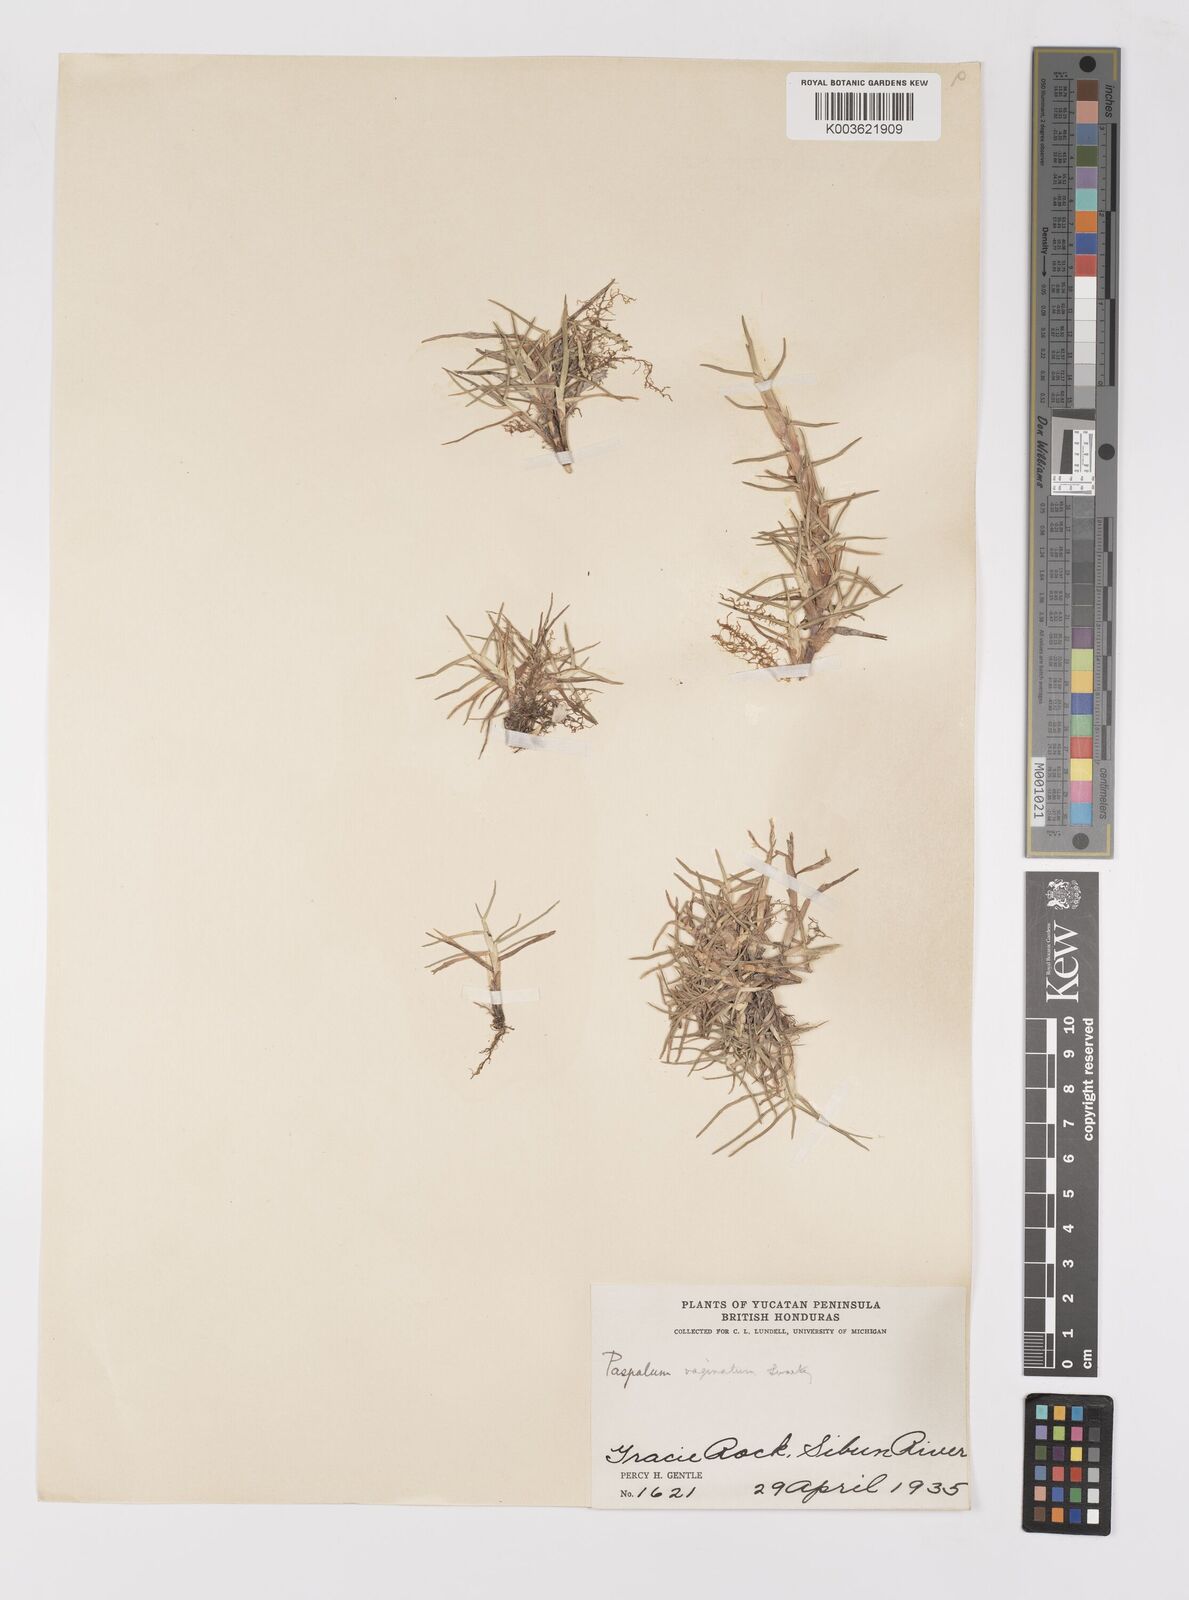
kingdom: Plantae
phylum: Tracheophyta
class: Liliopsida
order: Poales
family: Poaceae
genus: Paspalum
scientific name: Paspalum vaginatum
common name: Seashore paspalum
